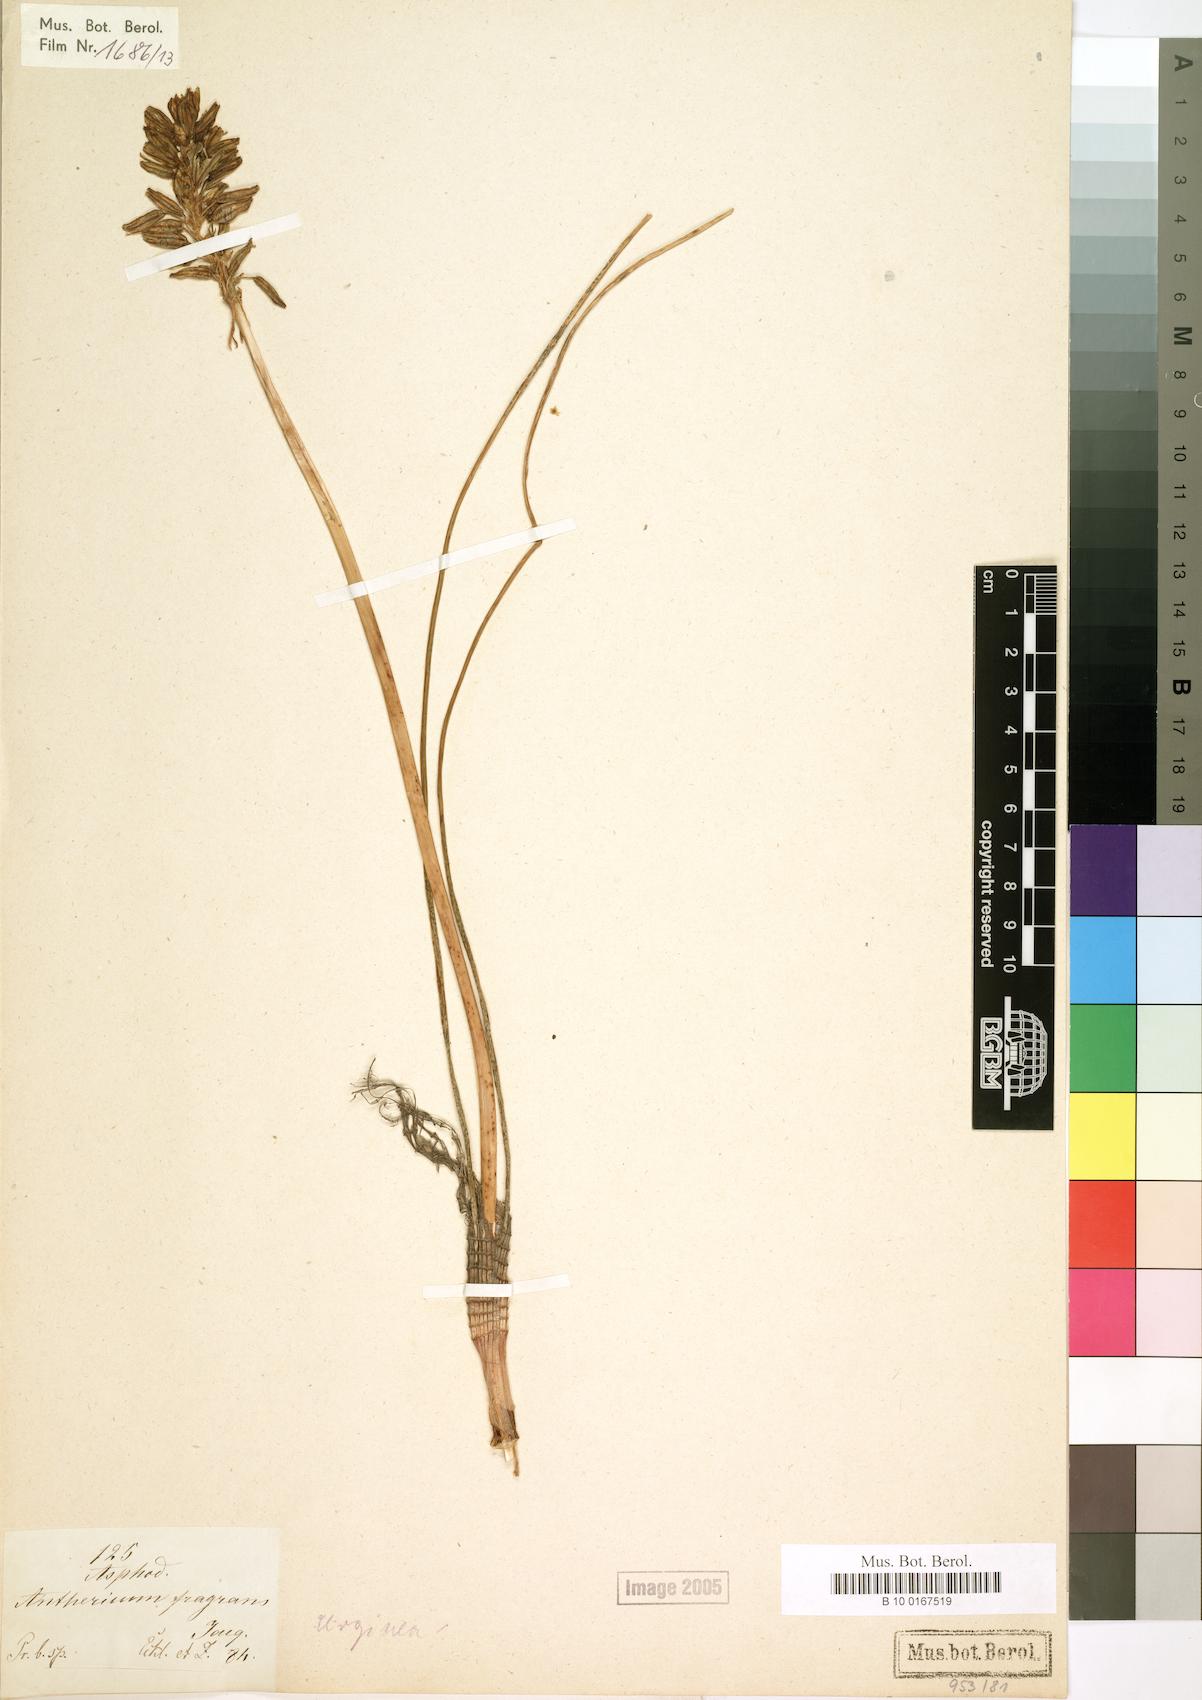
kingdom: Plantae
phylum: Tracheophyta
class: Liliopsida
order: Asparagales
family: Asparagaceae
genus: Drimia
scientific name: Drimia fragrans
